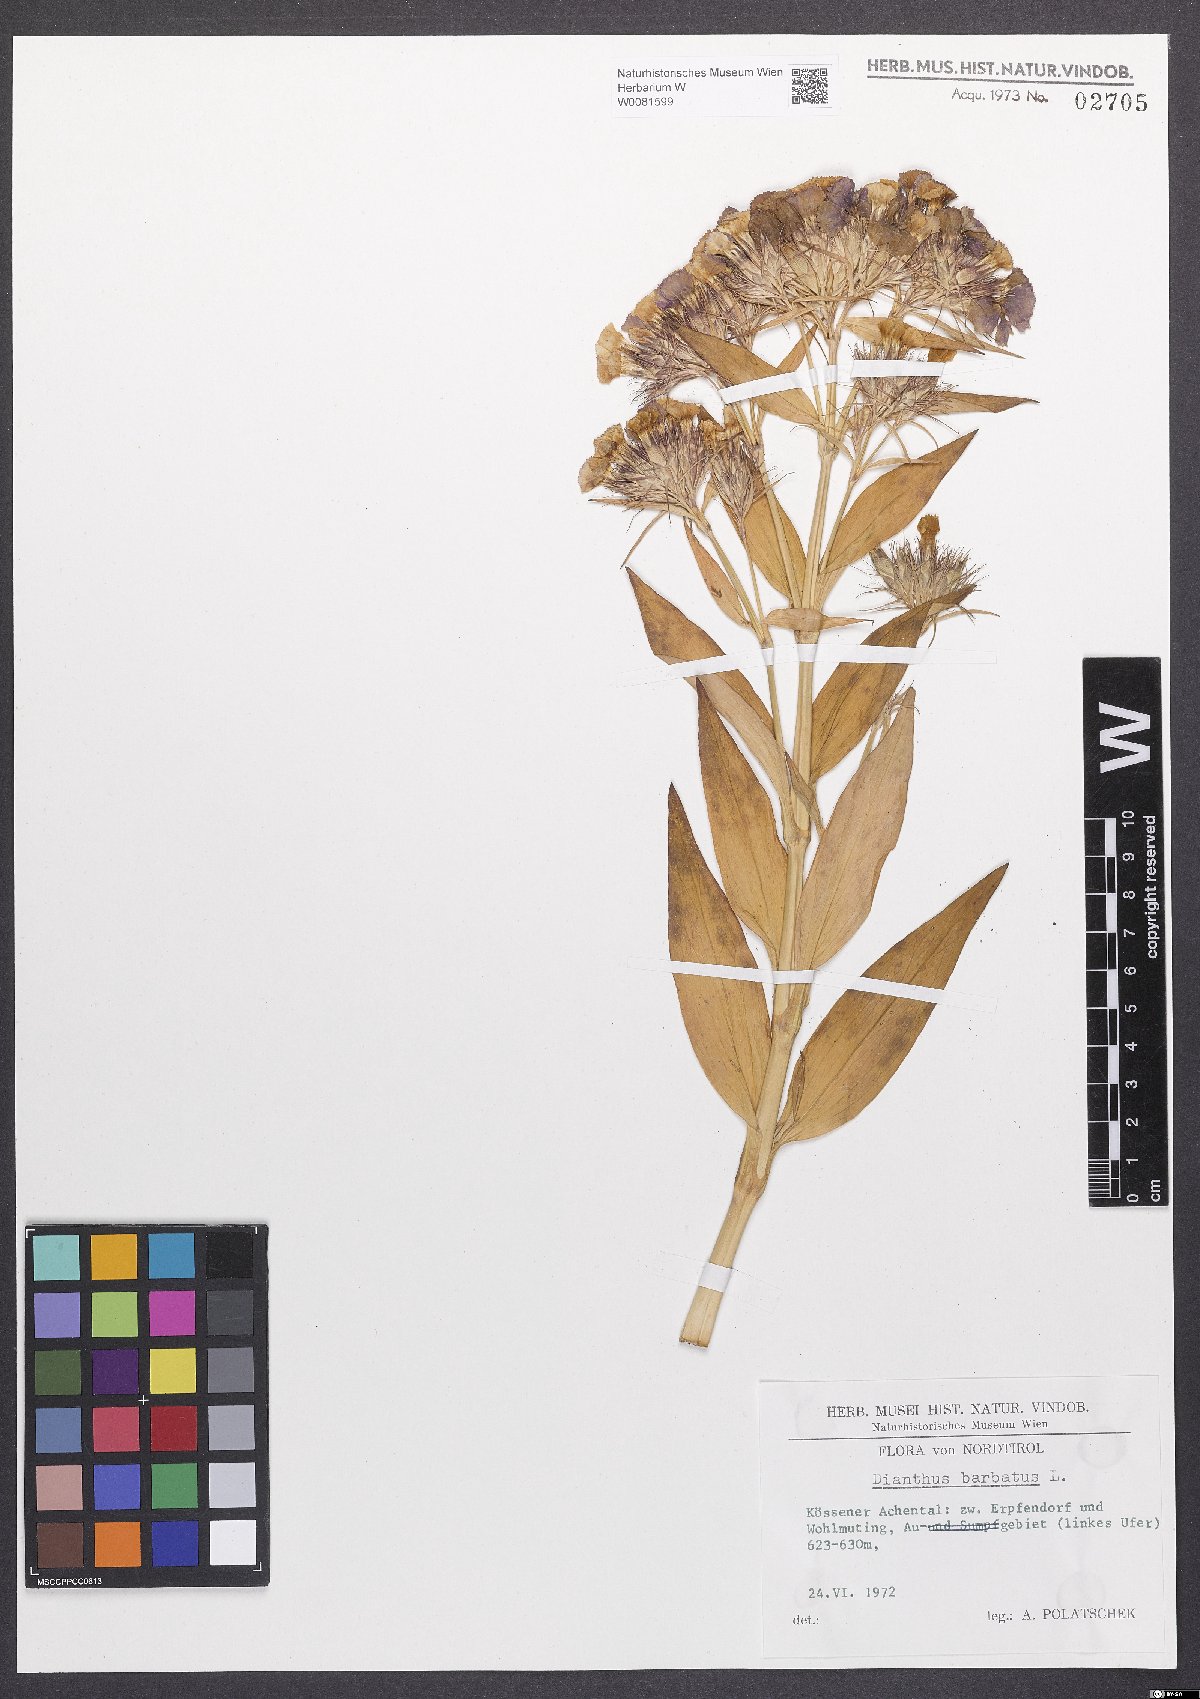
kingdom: Plantae
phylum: Tracheophyta
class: Magnoliopsida
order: Caryophyllales
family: Caryophyllaceae
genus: Dianthus
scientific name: Dianthus barbatus
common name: Sweet-william
